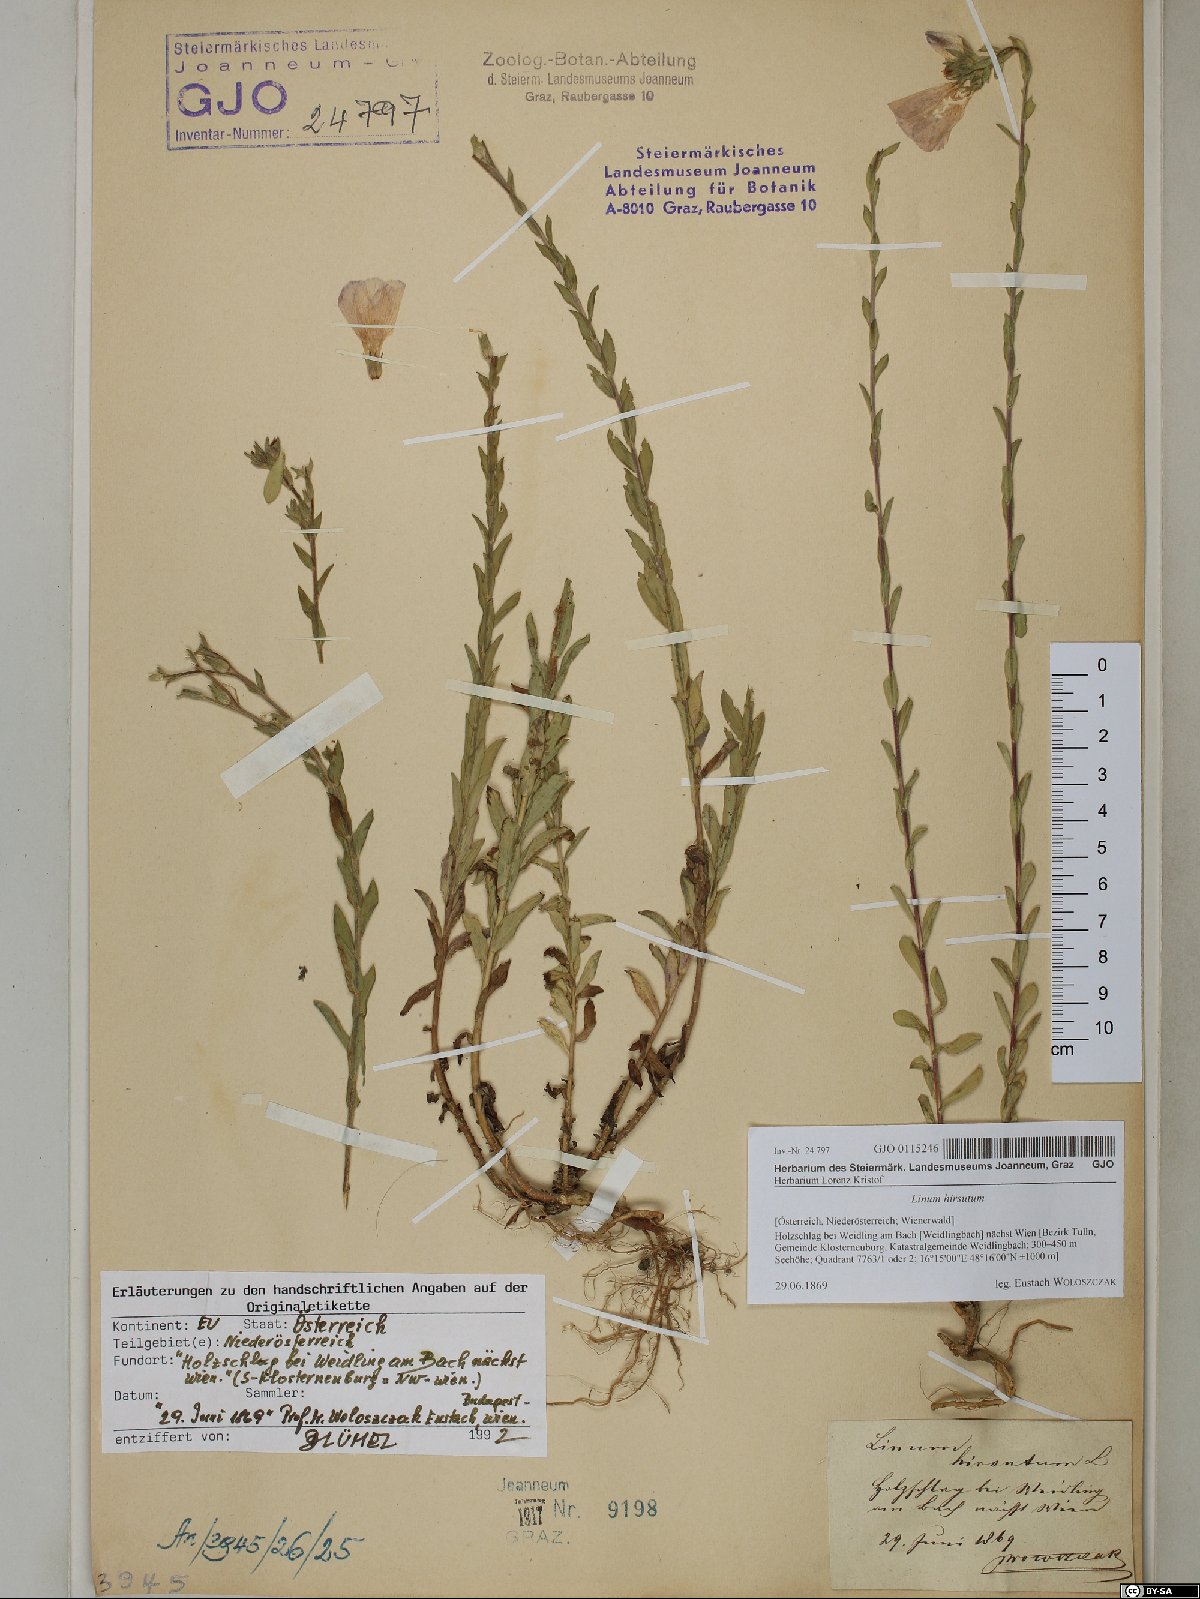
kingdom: Plantae
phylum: Tracheophyta
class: Magnoliopsida
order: Malpighiales
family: Linaceae
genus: Linum
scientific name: Linum hirsutum
